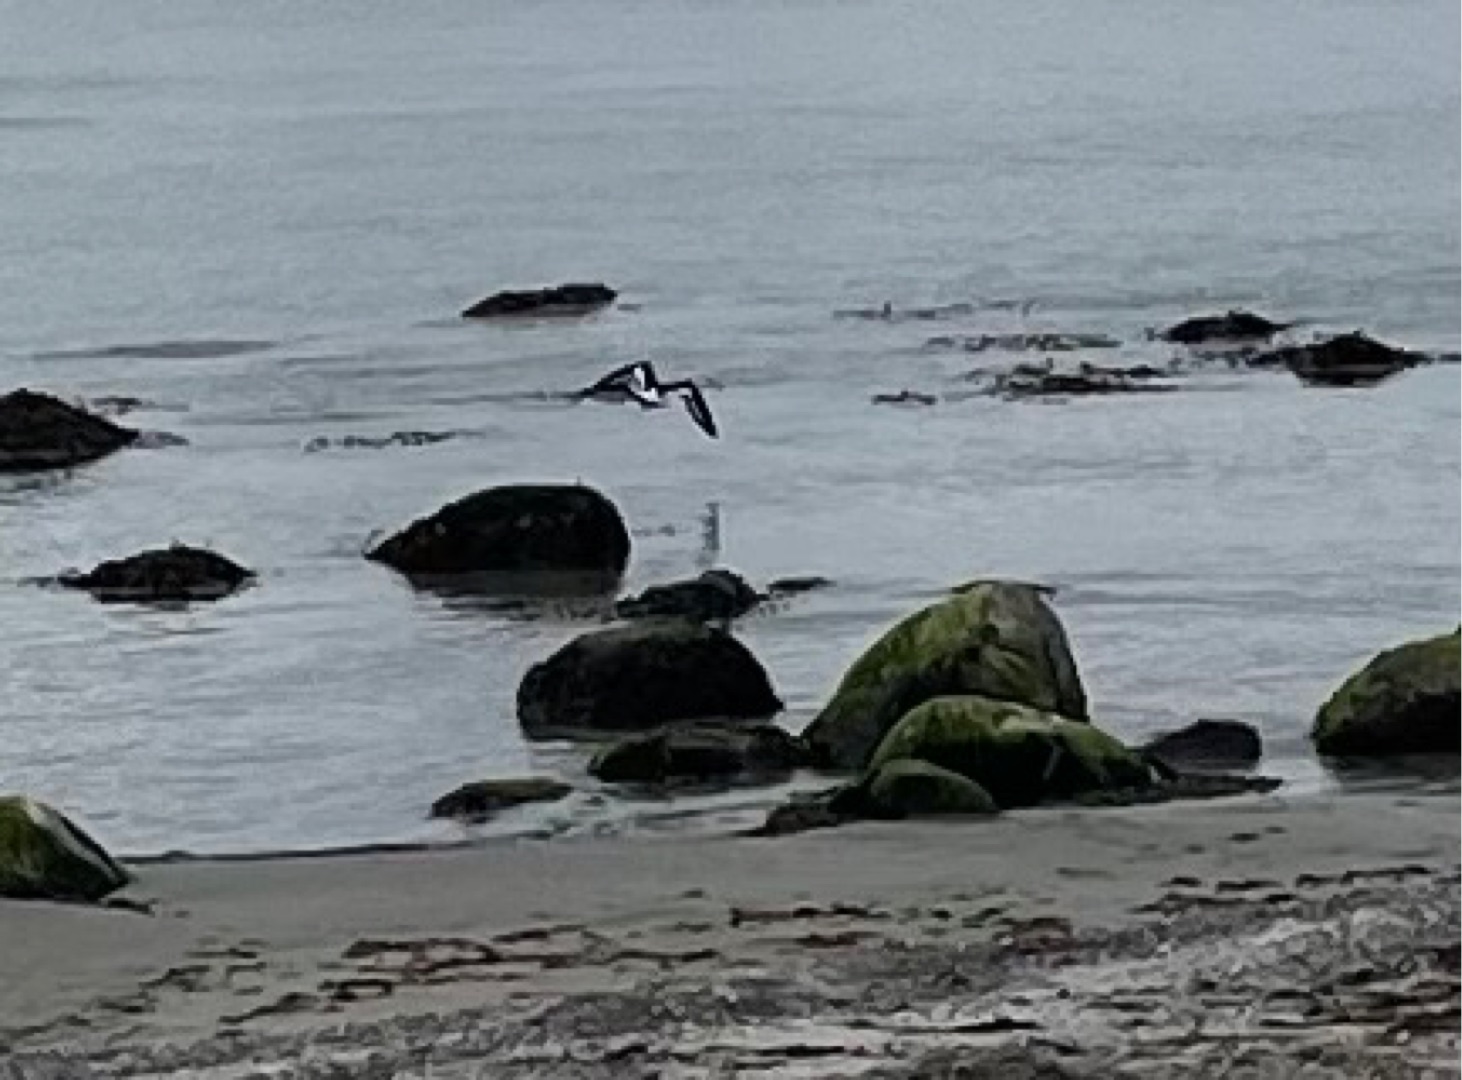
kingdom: Animalia
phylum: Chordata
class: Aves
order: Charadriiformes
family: Haematopodidae
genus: Haematopus
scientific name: Haematopus ostralegus
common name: Strandskade
